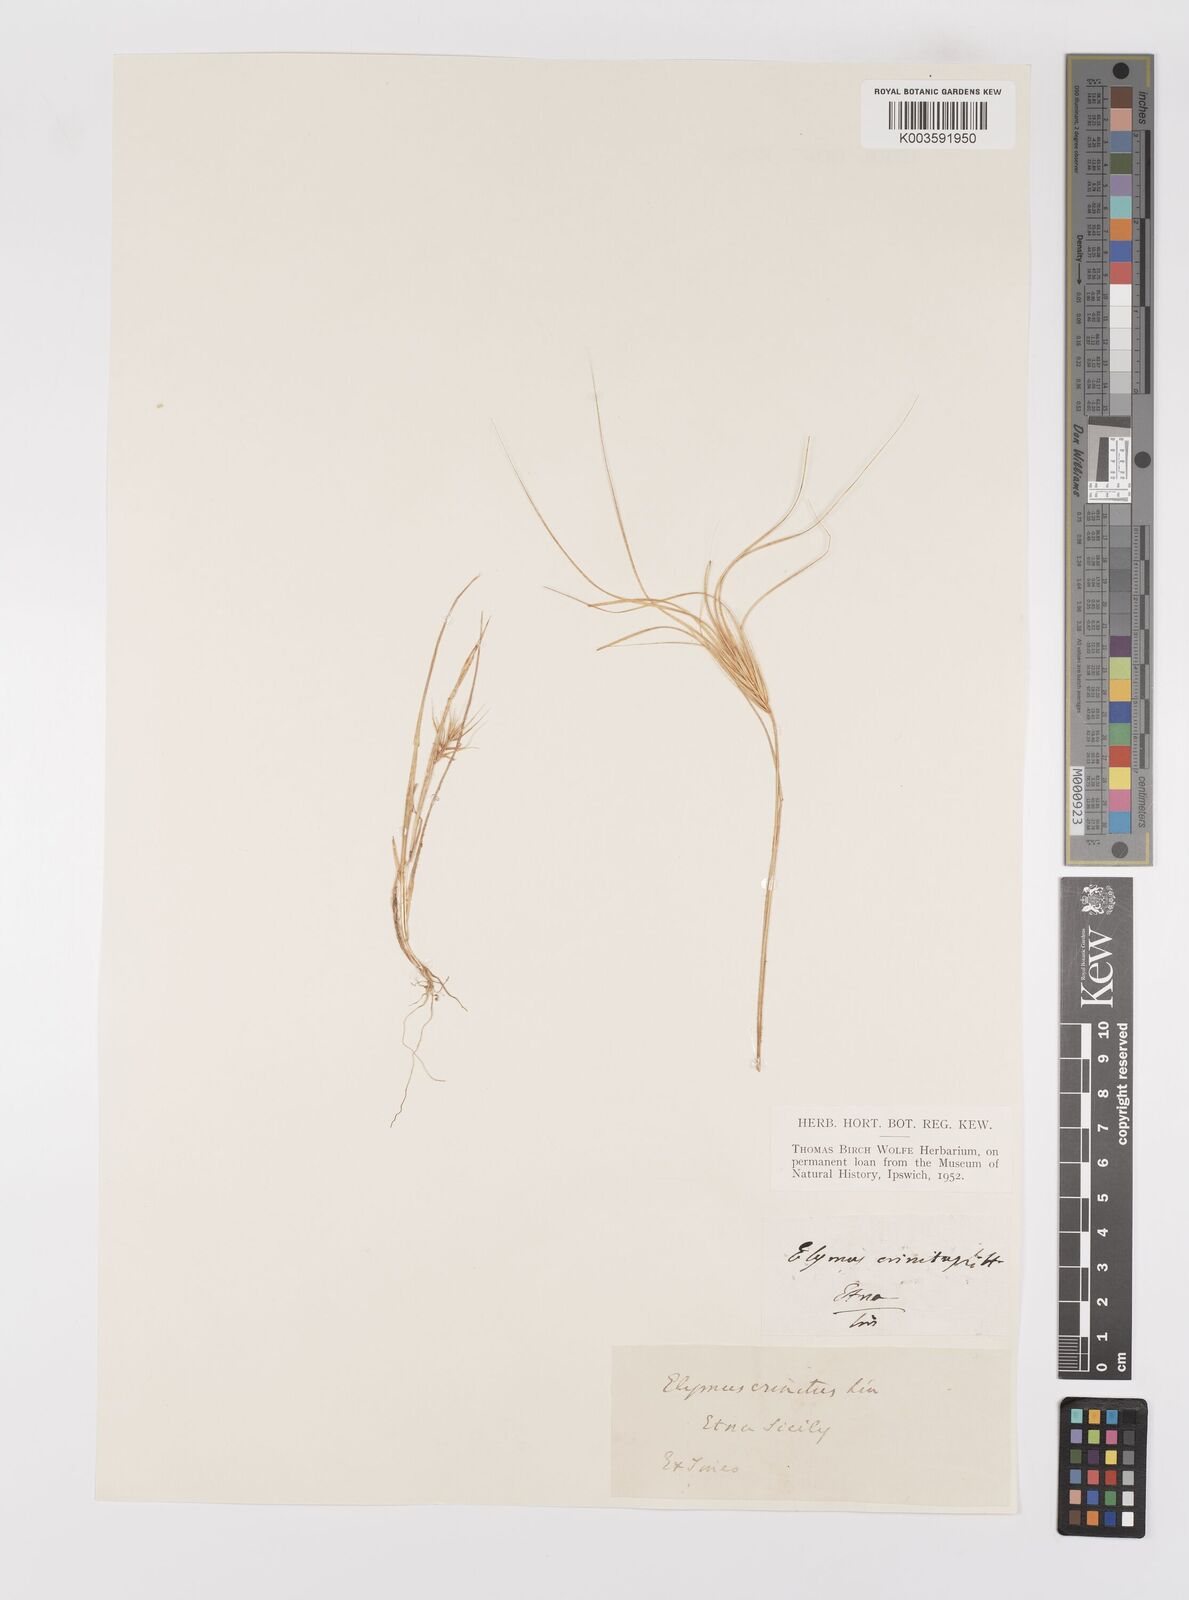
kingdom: Plantae
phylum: Tracheophyta
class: Liliopsida
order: Poales
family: Poaceae
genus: Taeniatherum
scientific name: Taeniatherum caput-medusae
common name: Medusahead
